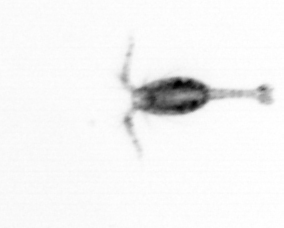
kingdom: Animalia
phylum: Arthropoda
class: Copepoda
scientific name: Copepoda
